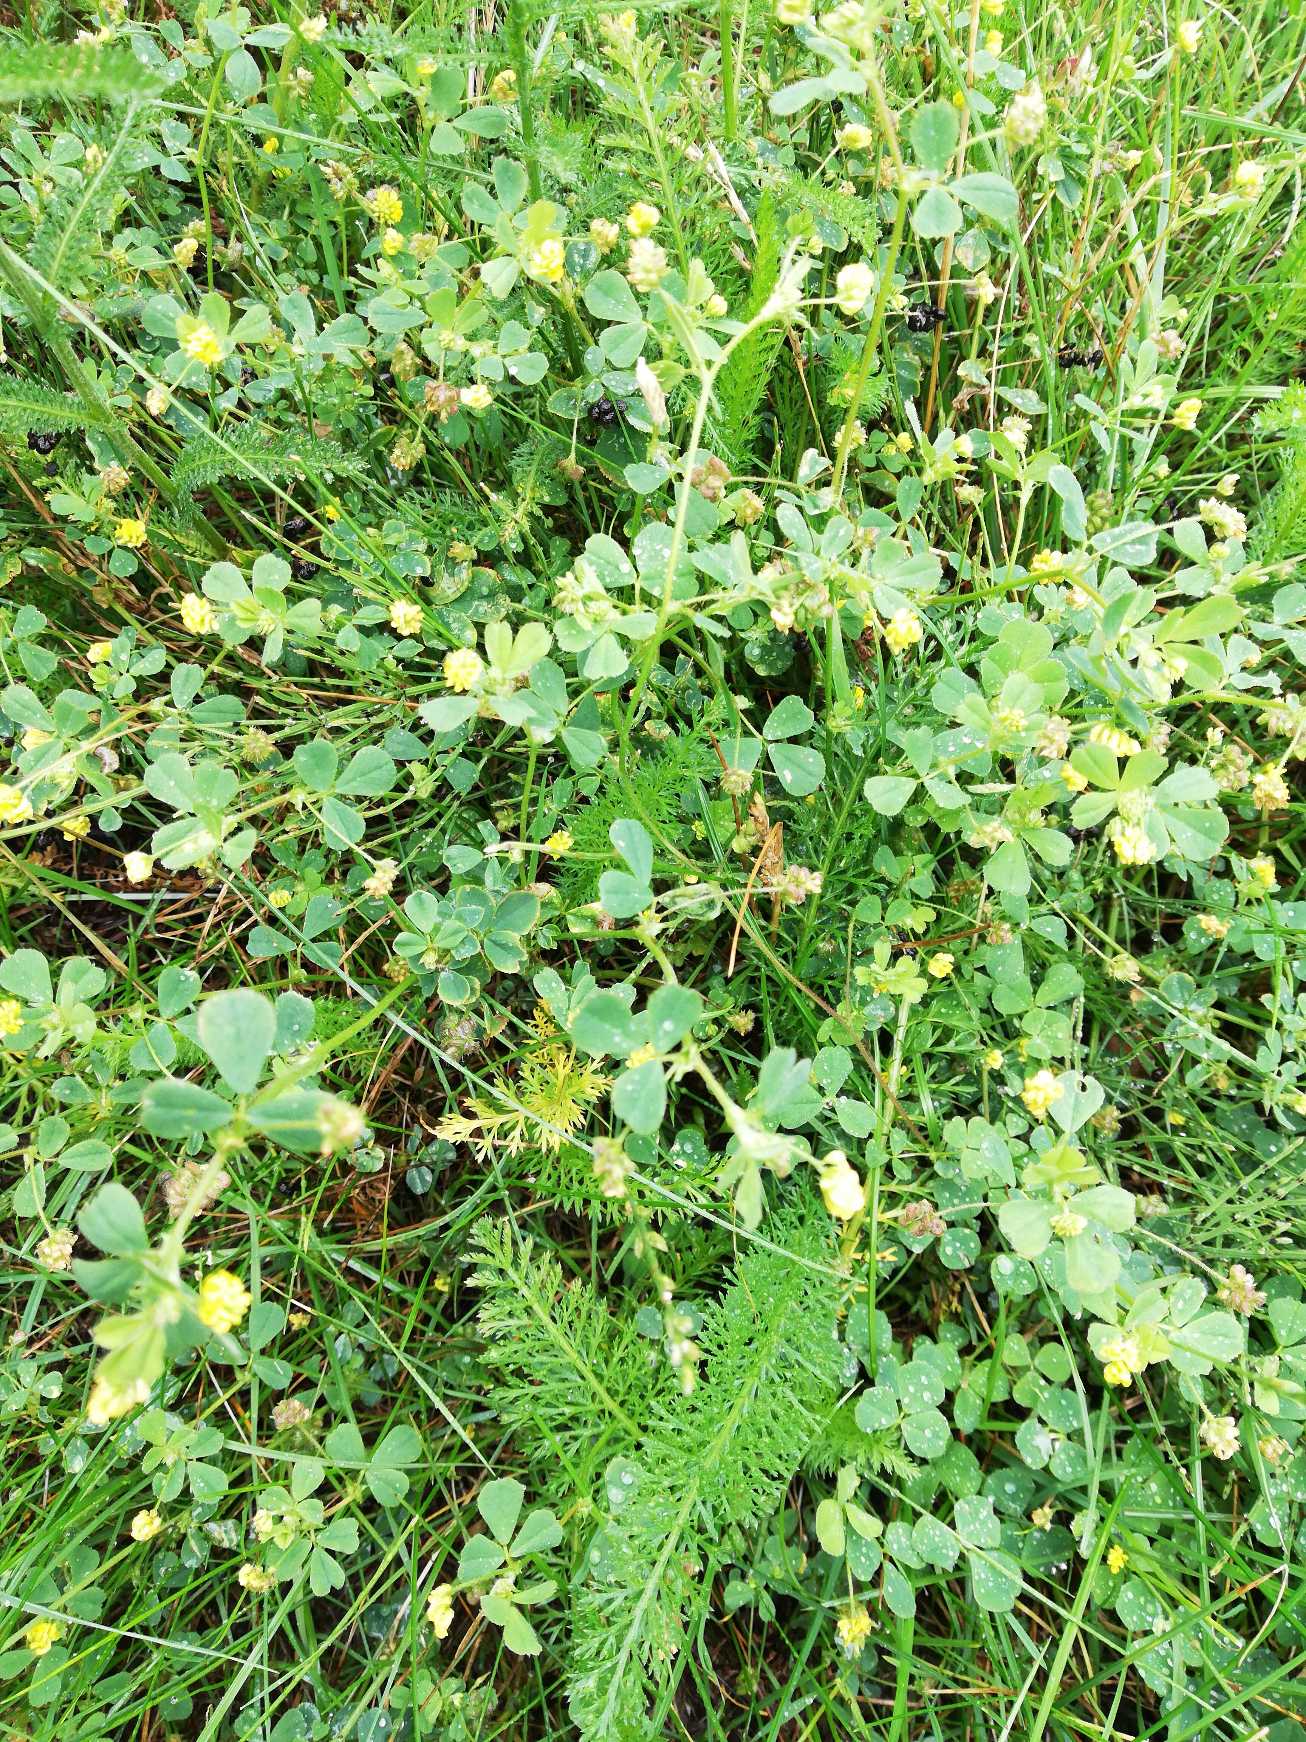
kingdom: Plantae
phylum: Tracheophyta
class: Magnoliopsida
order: Fabales
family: Fabaceae
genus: Medicago
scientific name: Medicago lupulina
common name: Humle-sneglebælg
